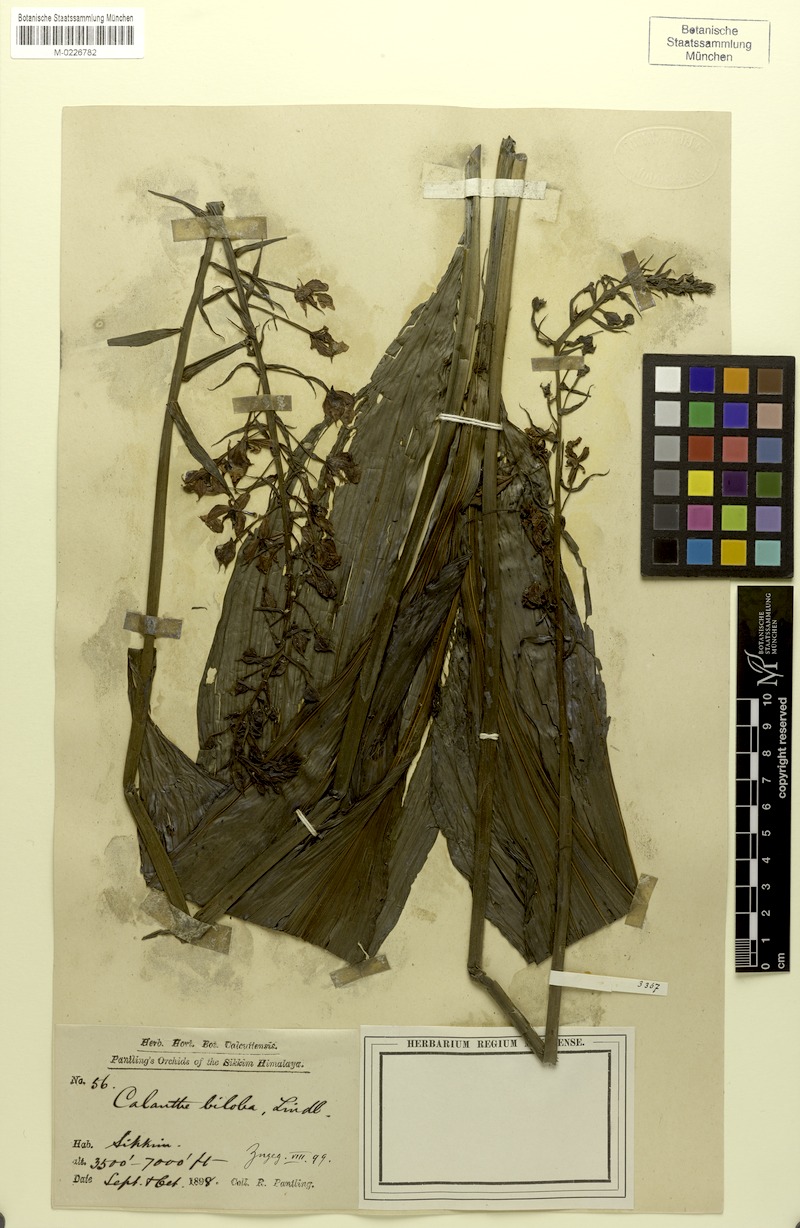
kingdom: Plantae
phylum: Tracheophyta
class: Liliopsida
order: Asparagales
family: Orchidaceae
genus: Calanthe
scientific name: Calanthe biloba
